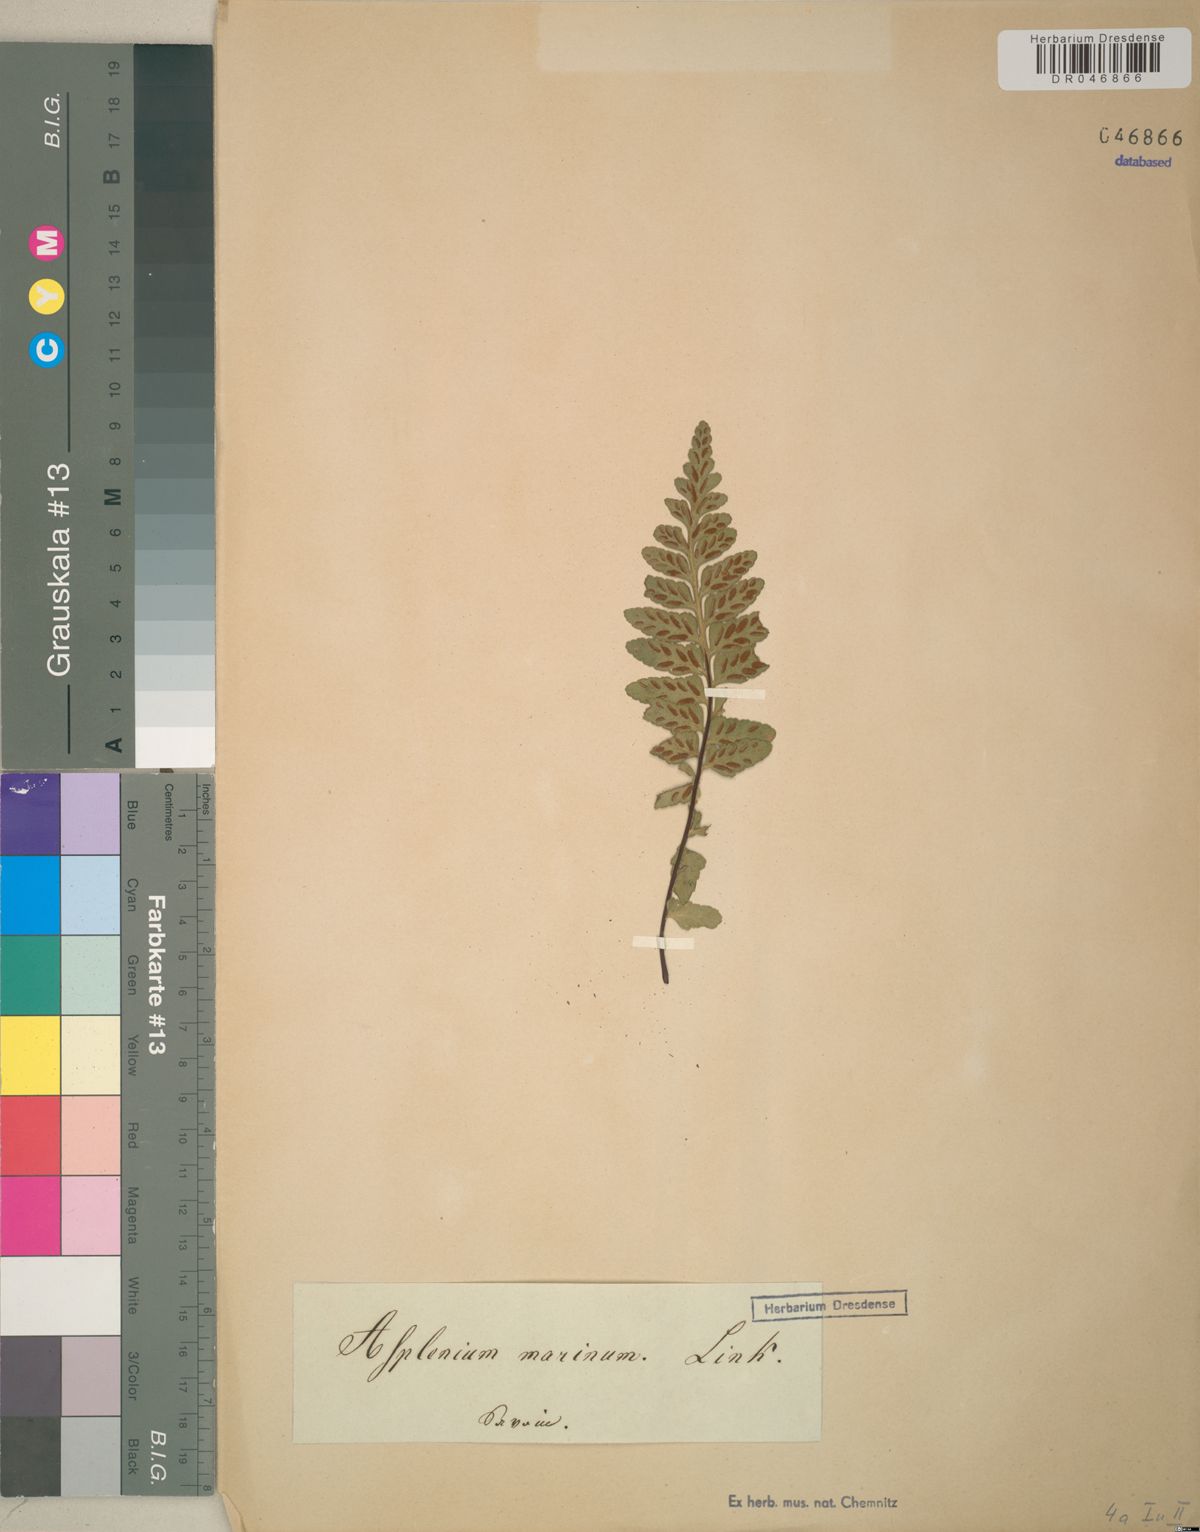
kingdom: Plantae
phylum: Tracheophyta
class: Polypodiopsida
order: Polypodiales
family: Aspleniaceae
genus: Asplenium
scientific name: Asplenium marinum
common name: Sea spleenwort
